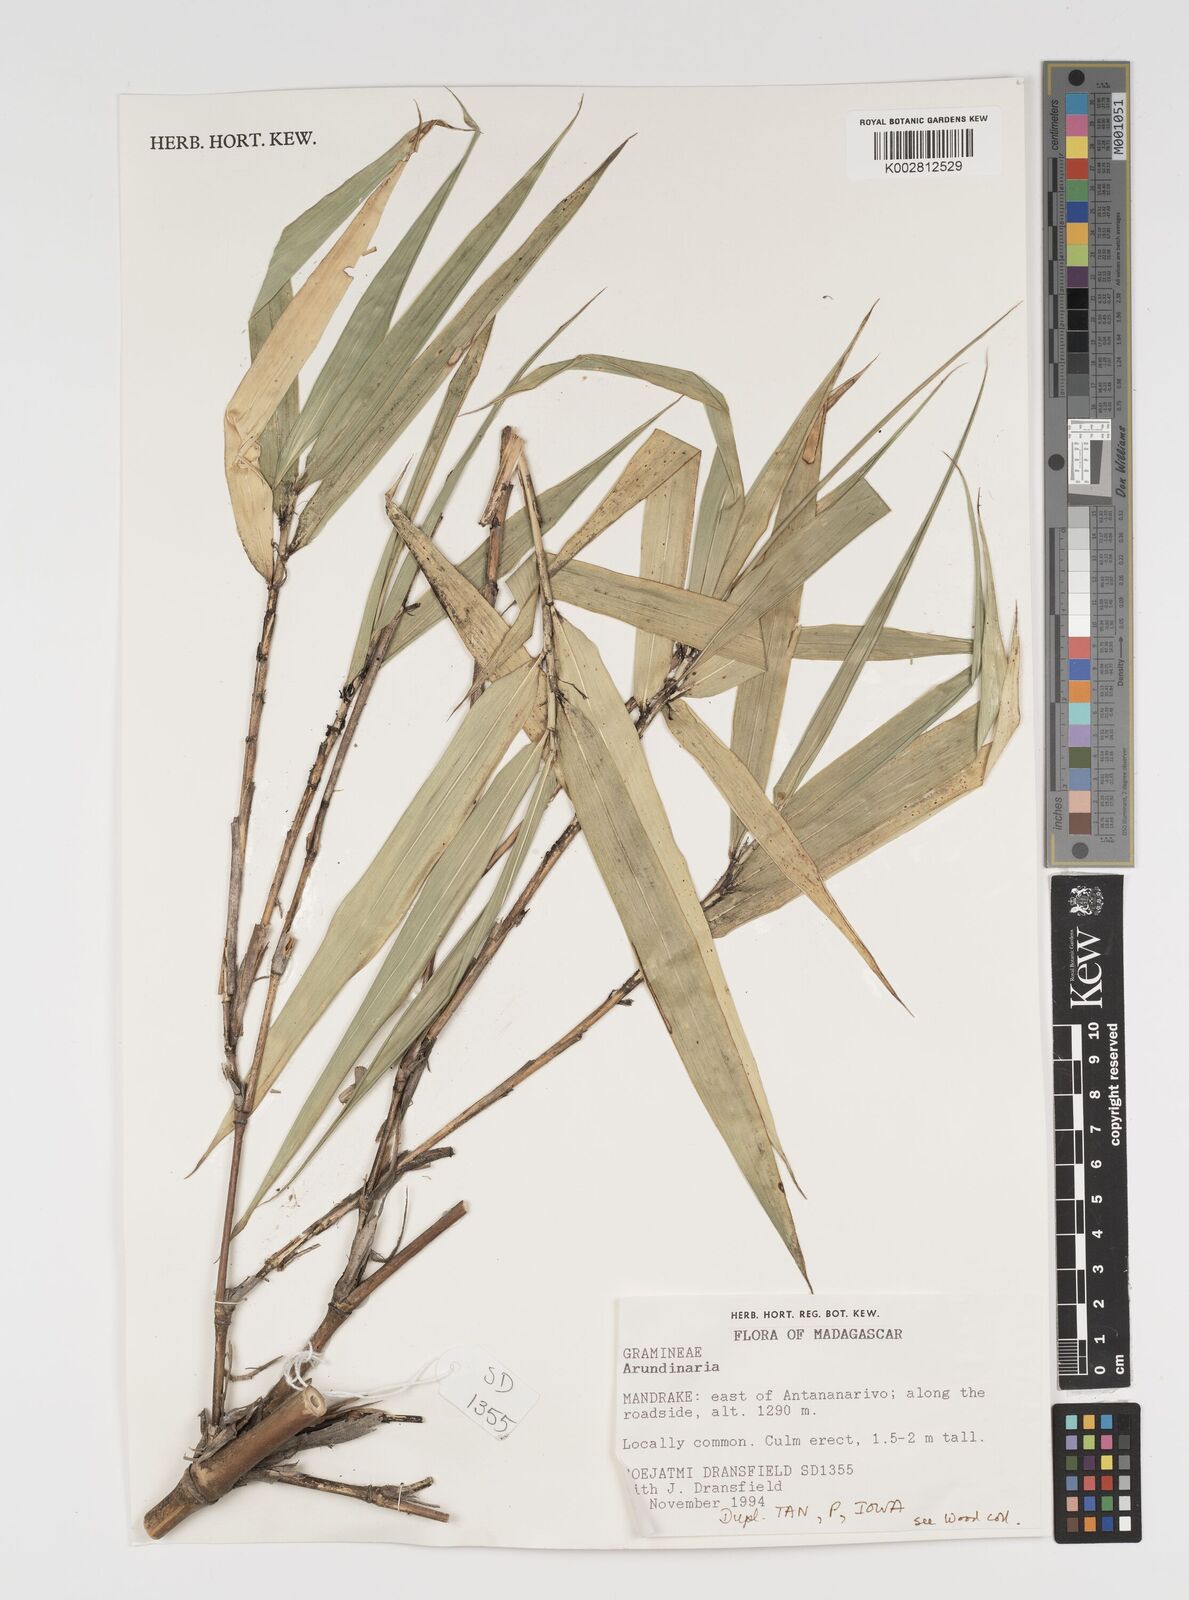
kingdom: Plantae
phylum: Tracheophyta
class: Liliopsida
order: Poales
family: Poaceae
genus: Arundinaria
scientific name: Arundinaria
